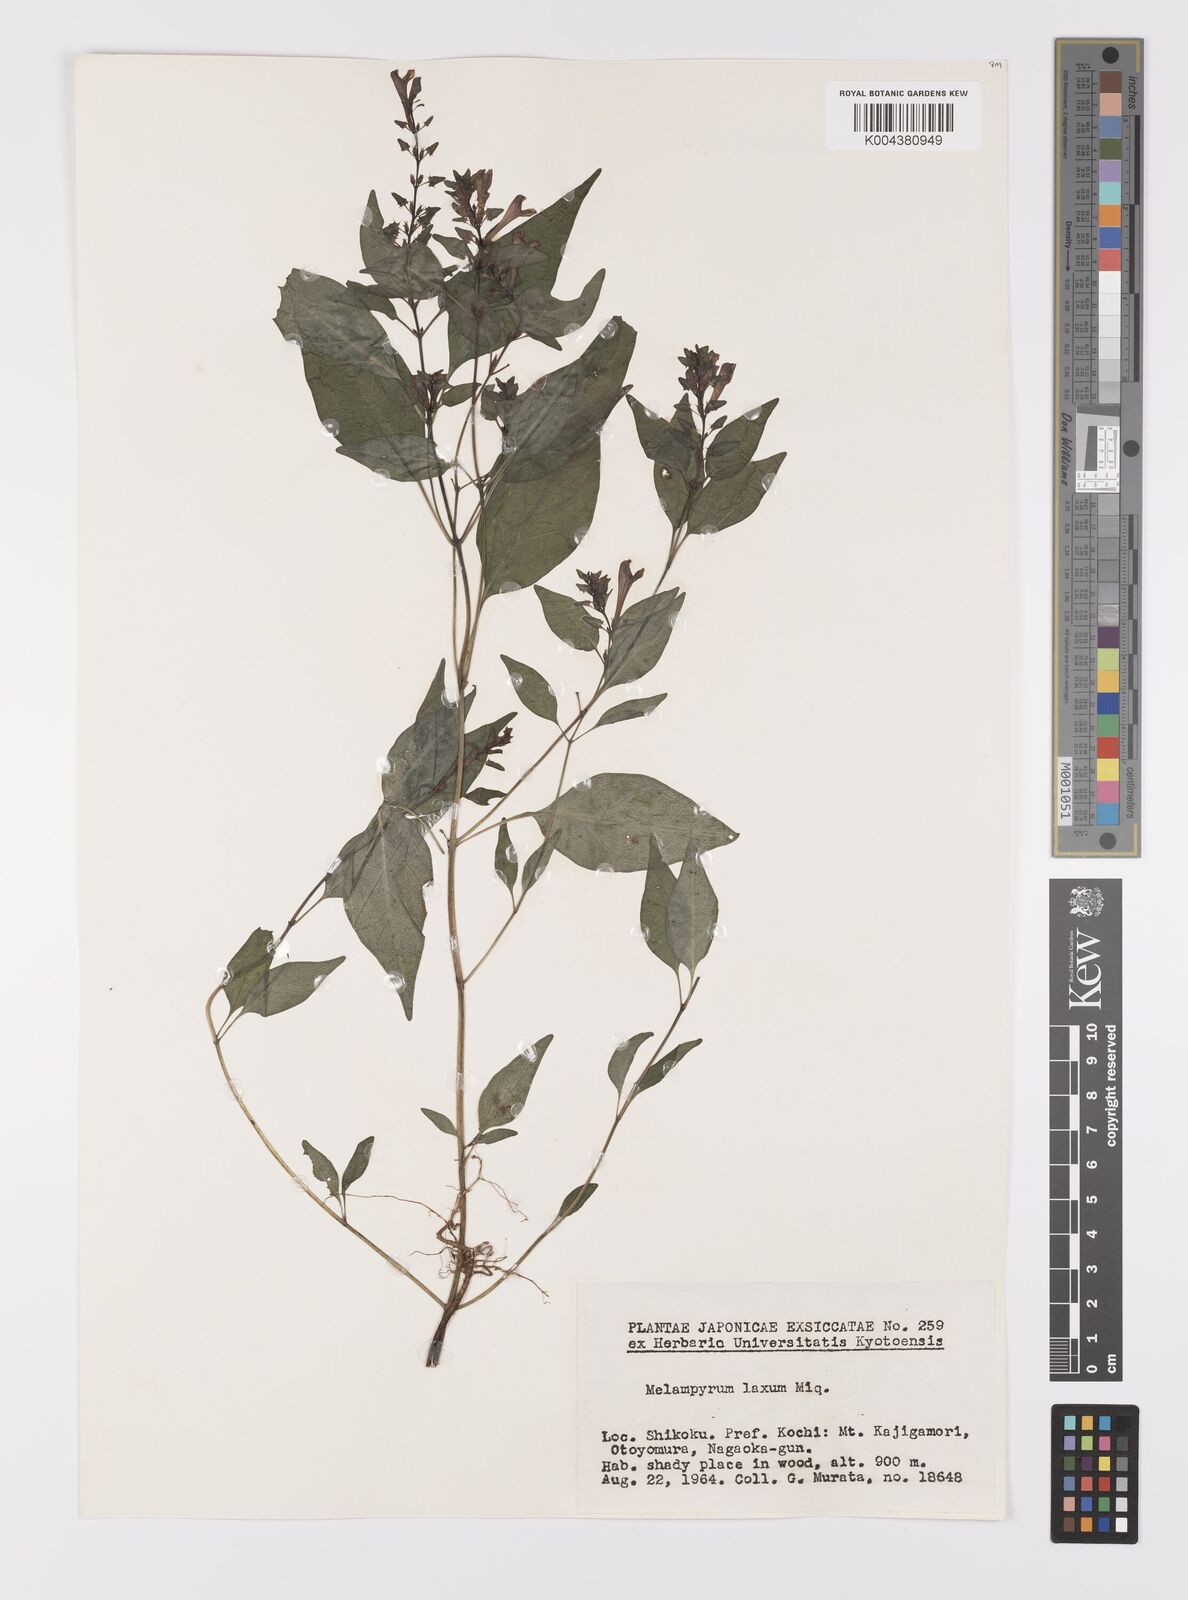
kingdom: Plantae
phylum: Tracheophyta
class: Magnoliopsida
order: Lamiales
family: Orobanchaceae
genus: Melampyrum
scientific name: Melampyrum laxum
